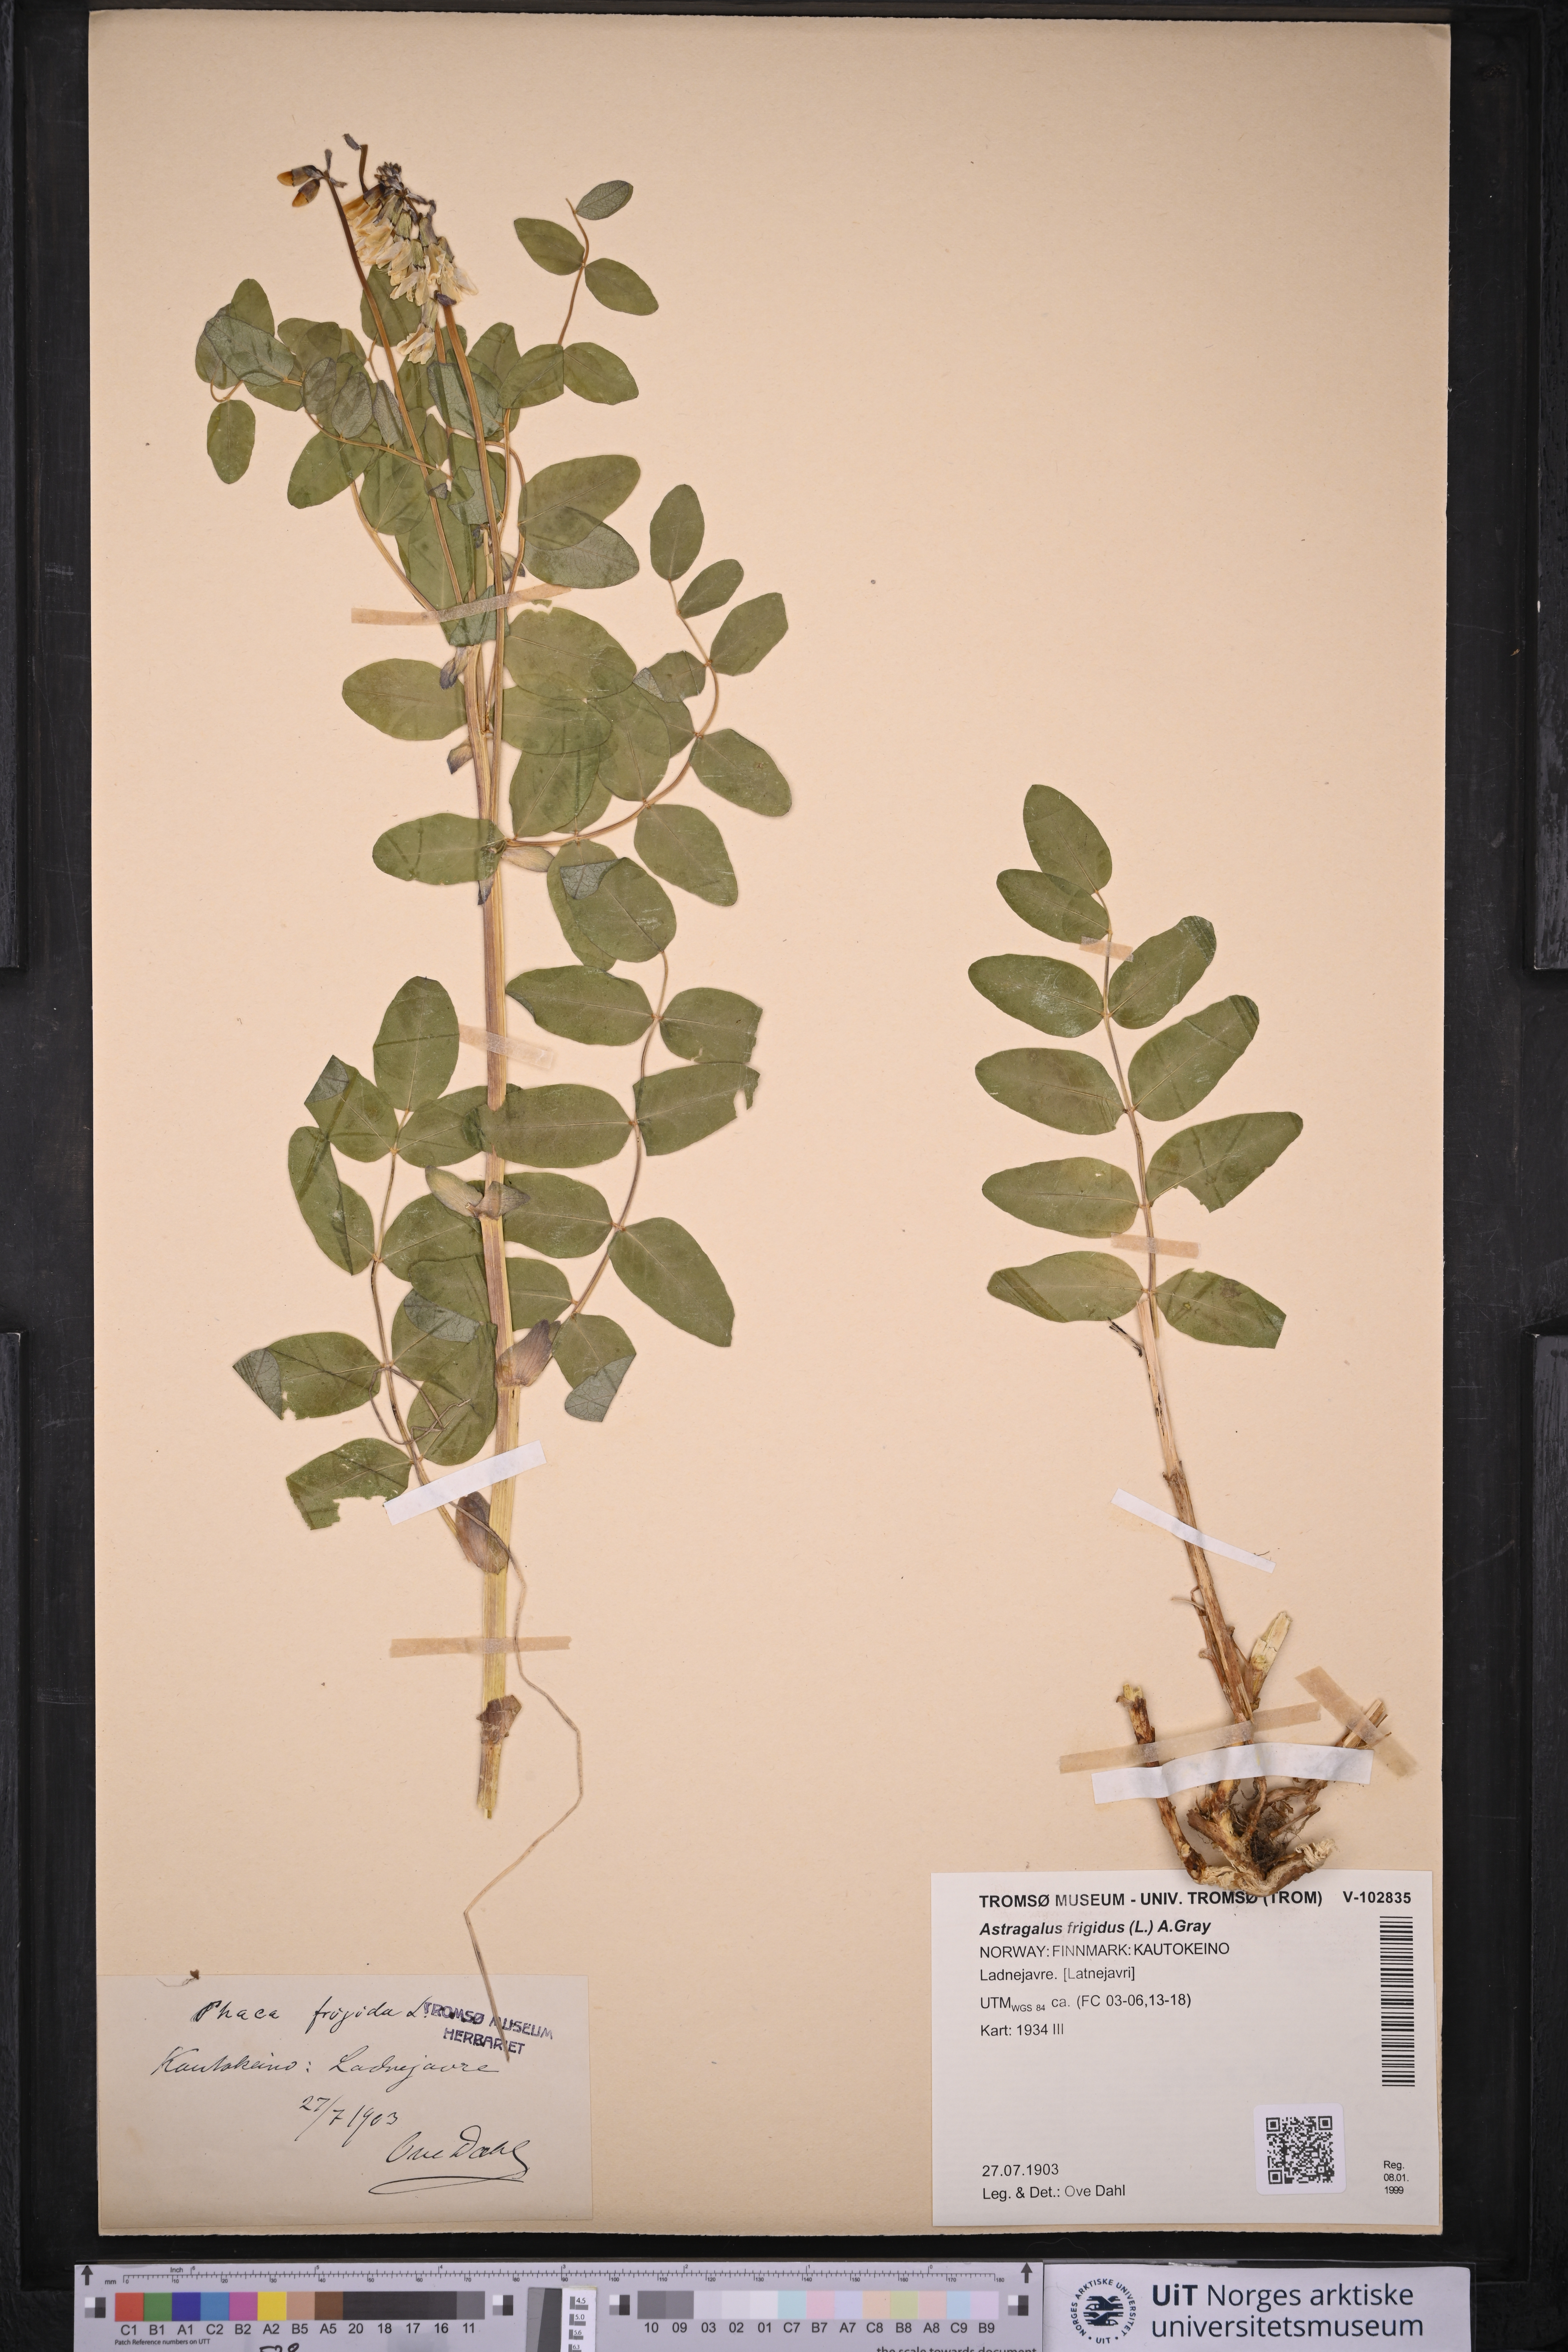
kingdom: Plantae
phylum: Tracheophyta
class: Magnoliopsida
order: Fabales
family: Fabaceae
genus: Astragalus
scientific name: Astragalus frigidus
